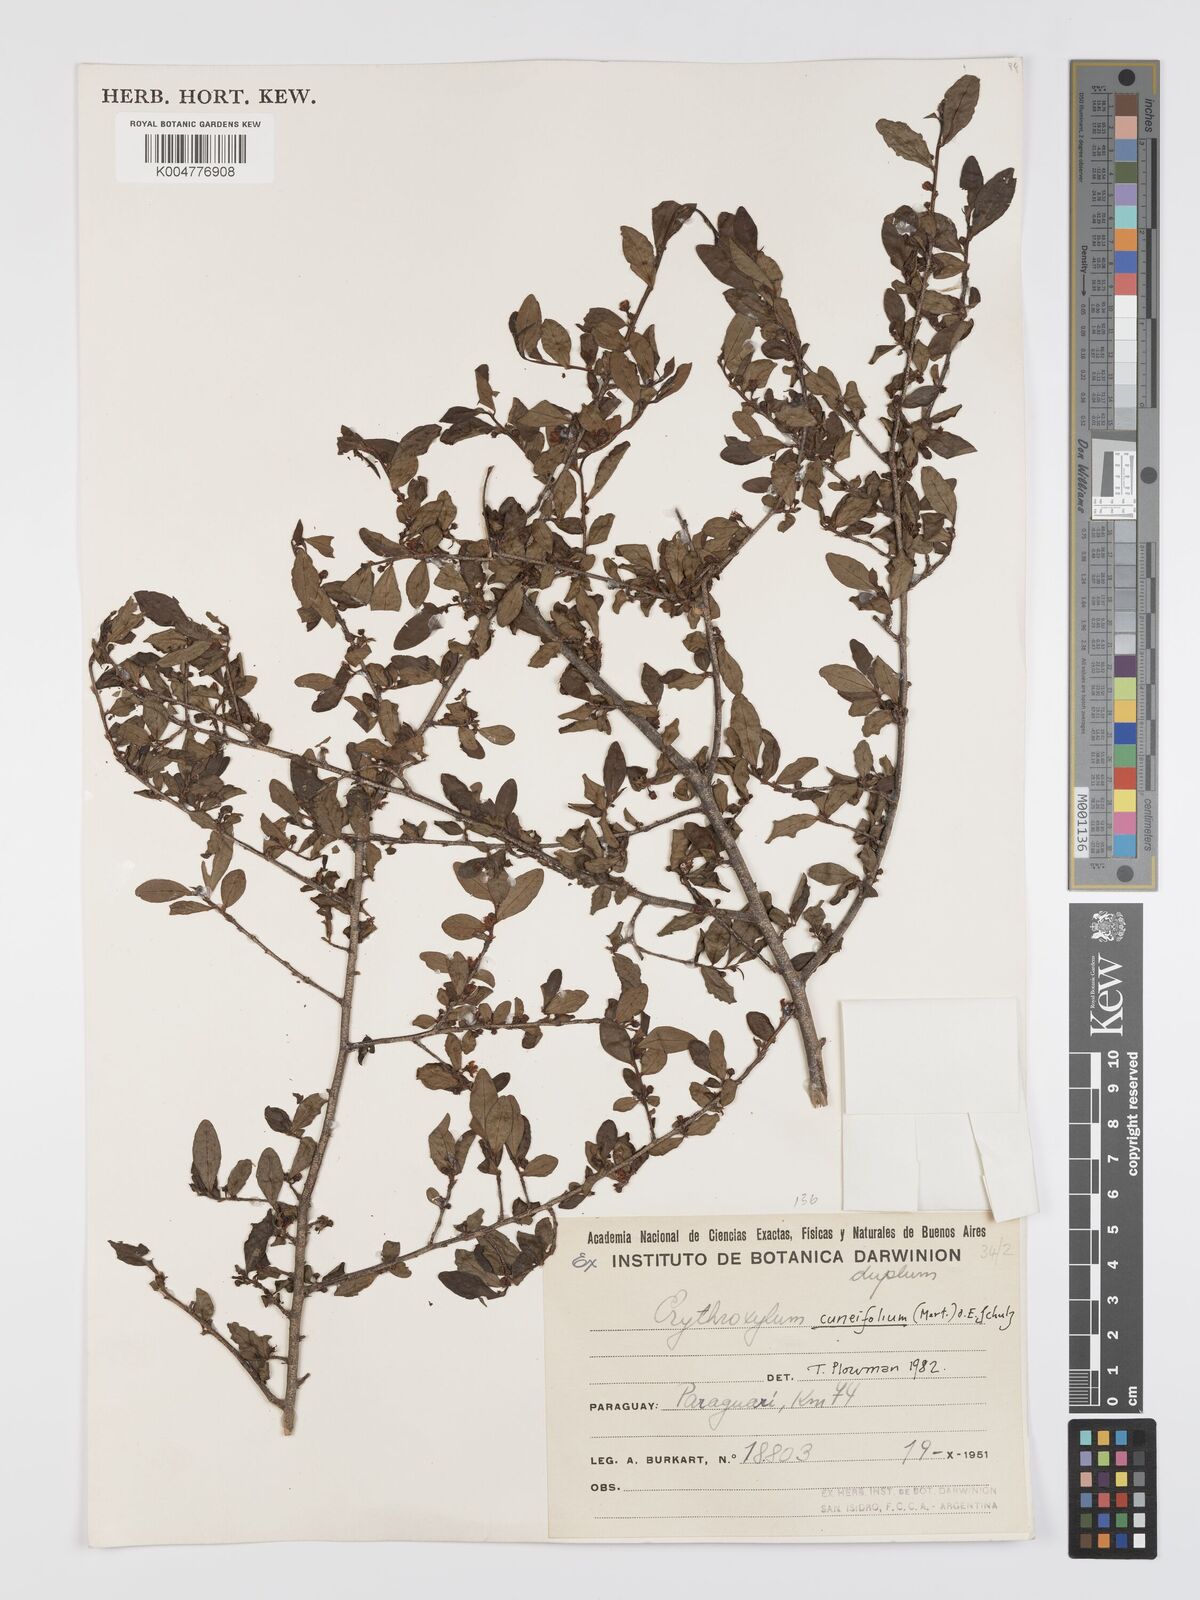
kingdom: Plantae
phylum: Tracheophyta
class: Magnoliopsida
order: Malpighiales
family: Erythroxylaceae
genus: Erythroxylum
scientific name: Erythroxylum cuneifolium
